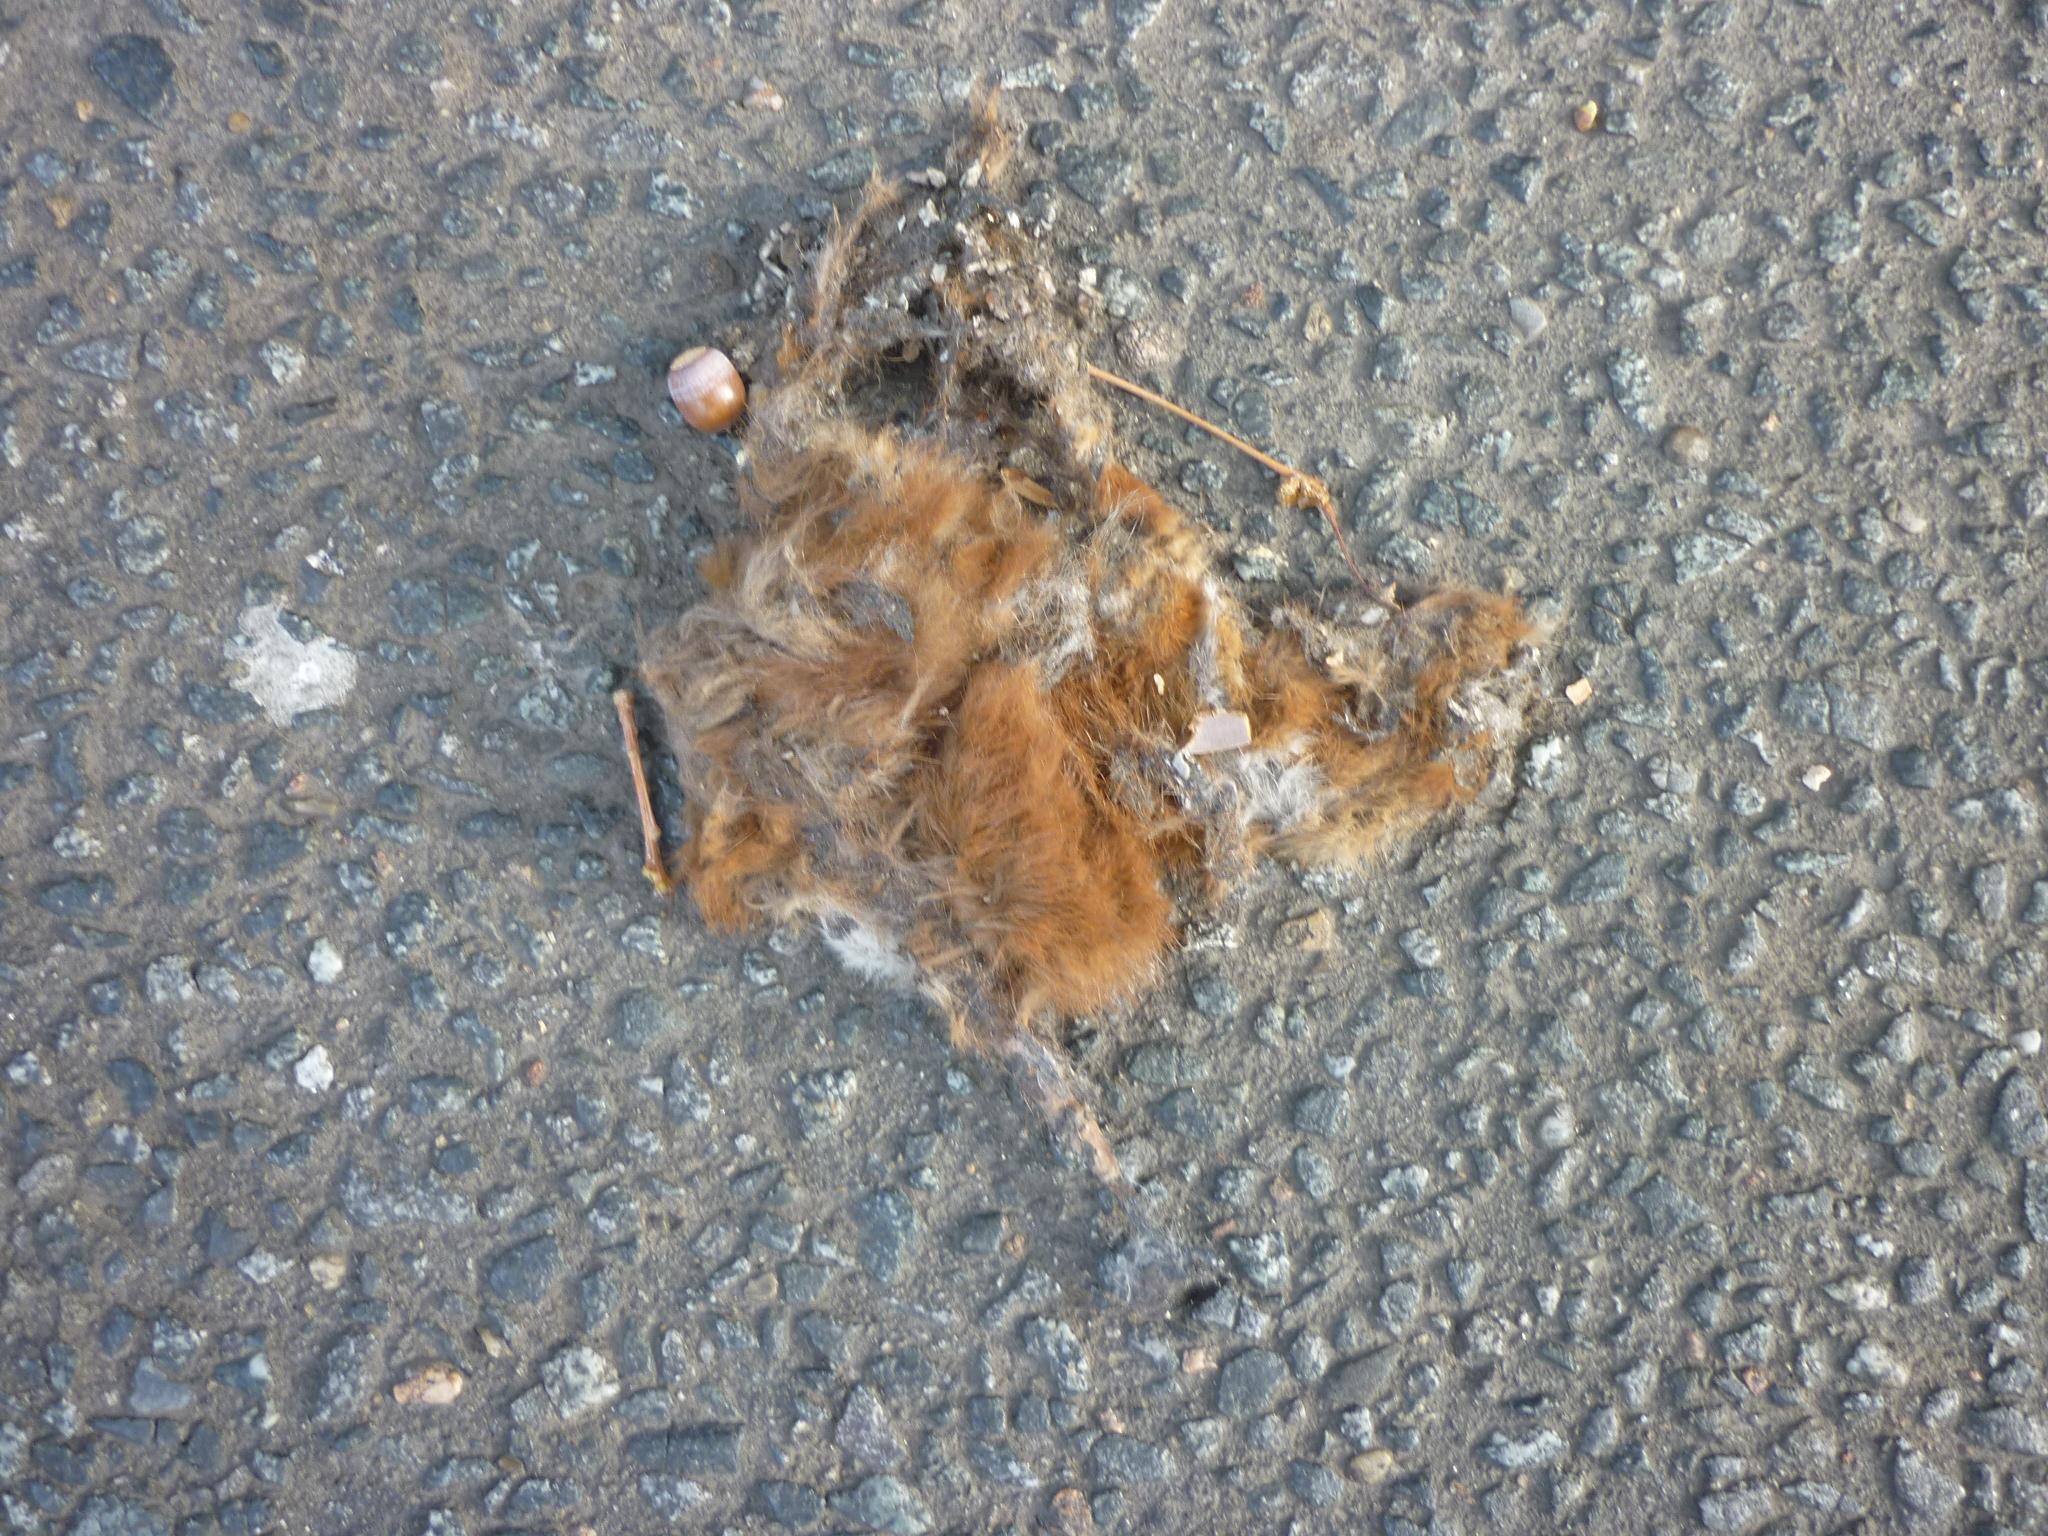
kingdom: Animalia
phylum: Chordata
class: Mammalia
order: Rodentia
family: Sciuridae
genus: Sciurus
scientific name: Sciurus vulgaris
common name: Eurasian red squirrel
